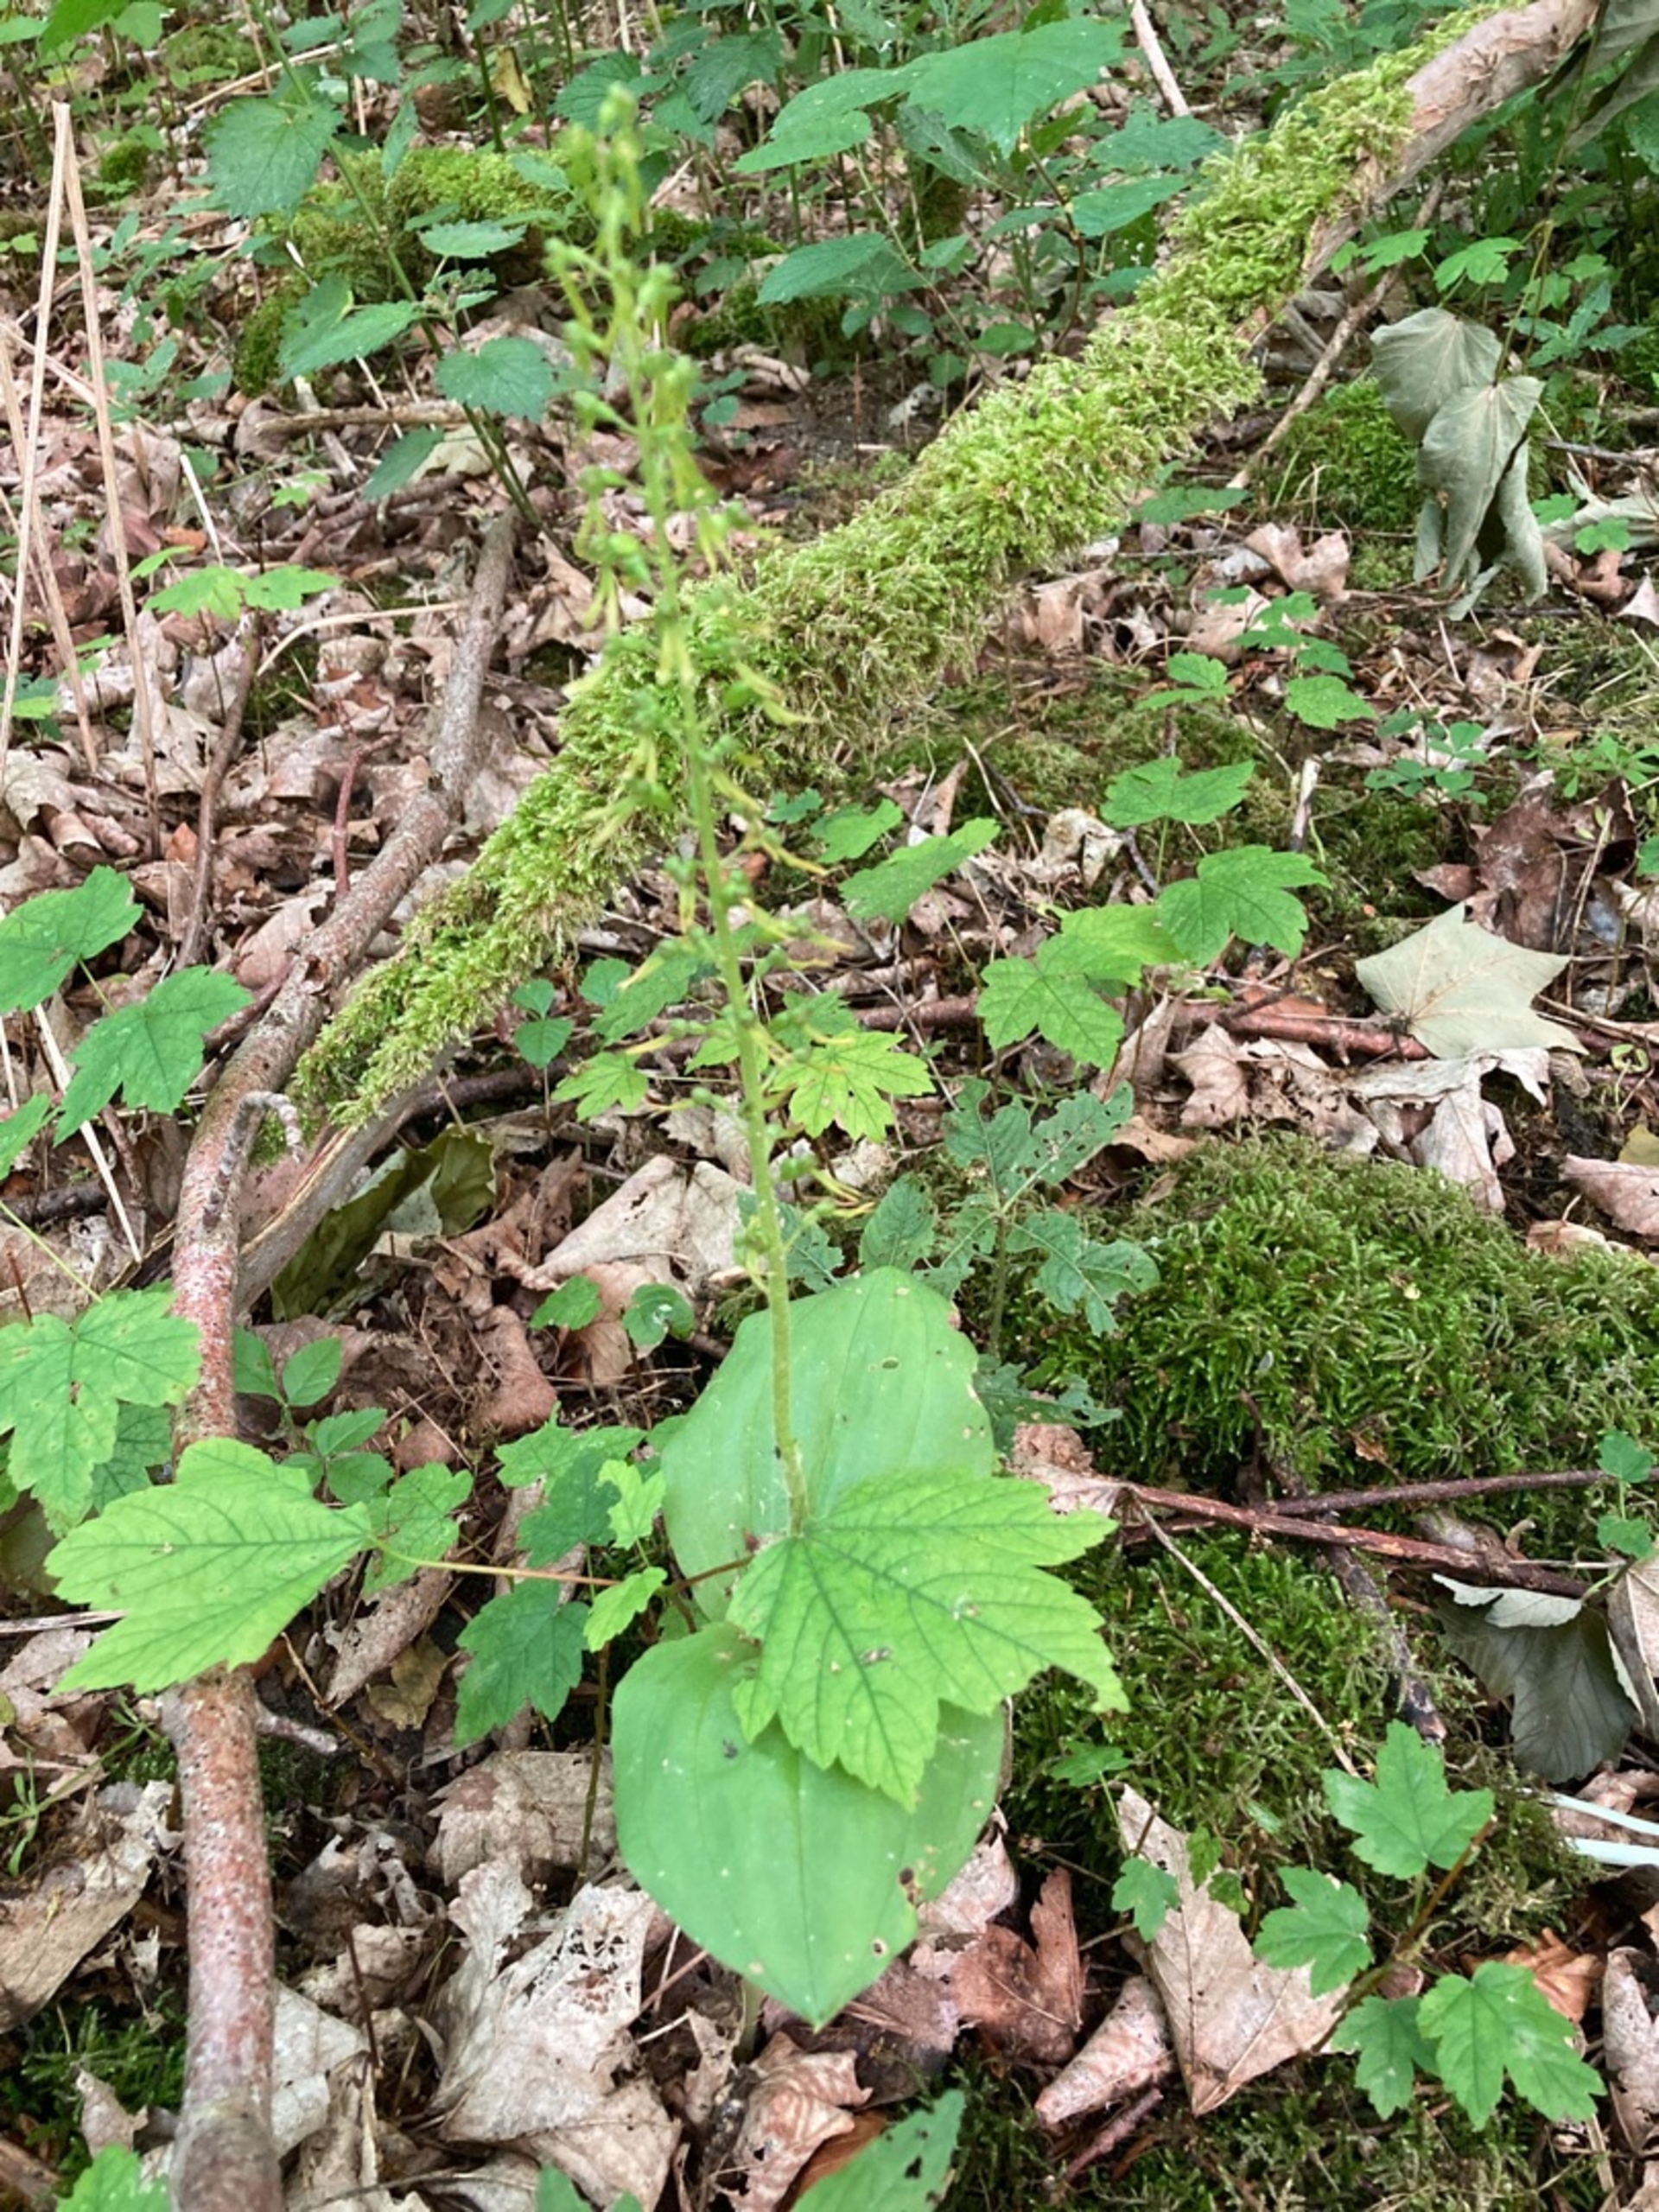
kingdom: Plantae
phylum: Tracheophyta
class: Liliopsida
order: Asparagales
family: Orchidaceae
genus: Neottia
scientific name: Neottia ovata
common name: Ægbladet fliglæbe
